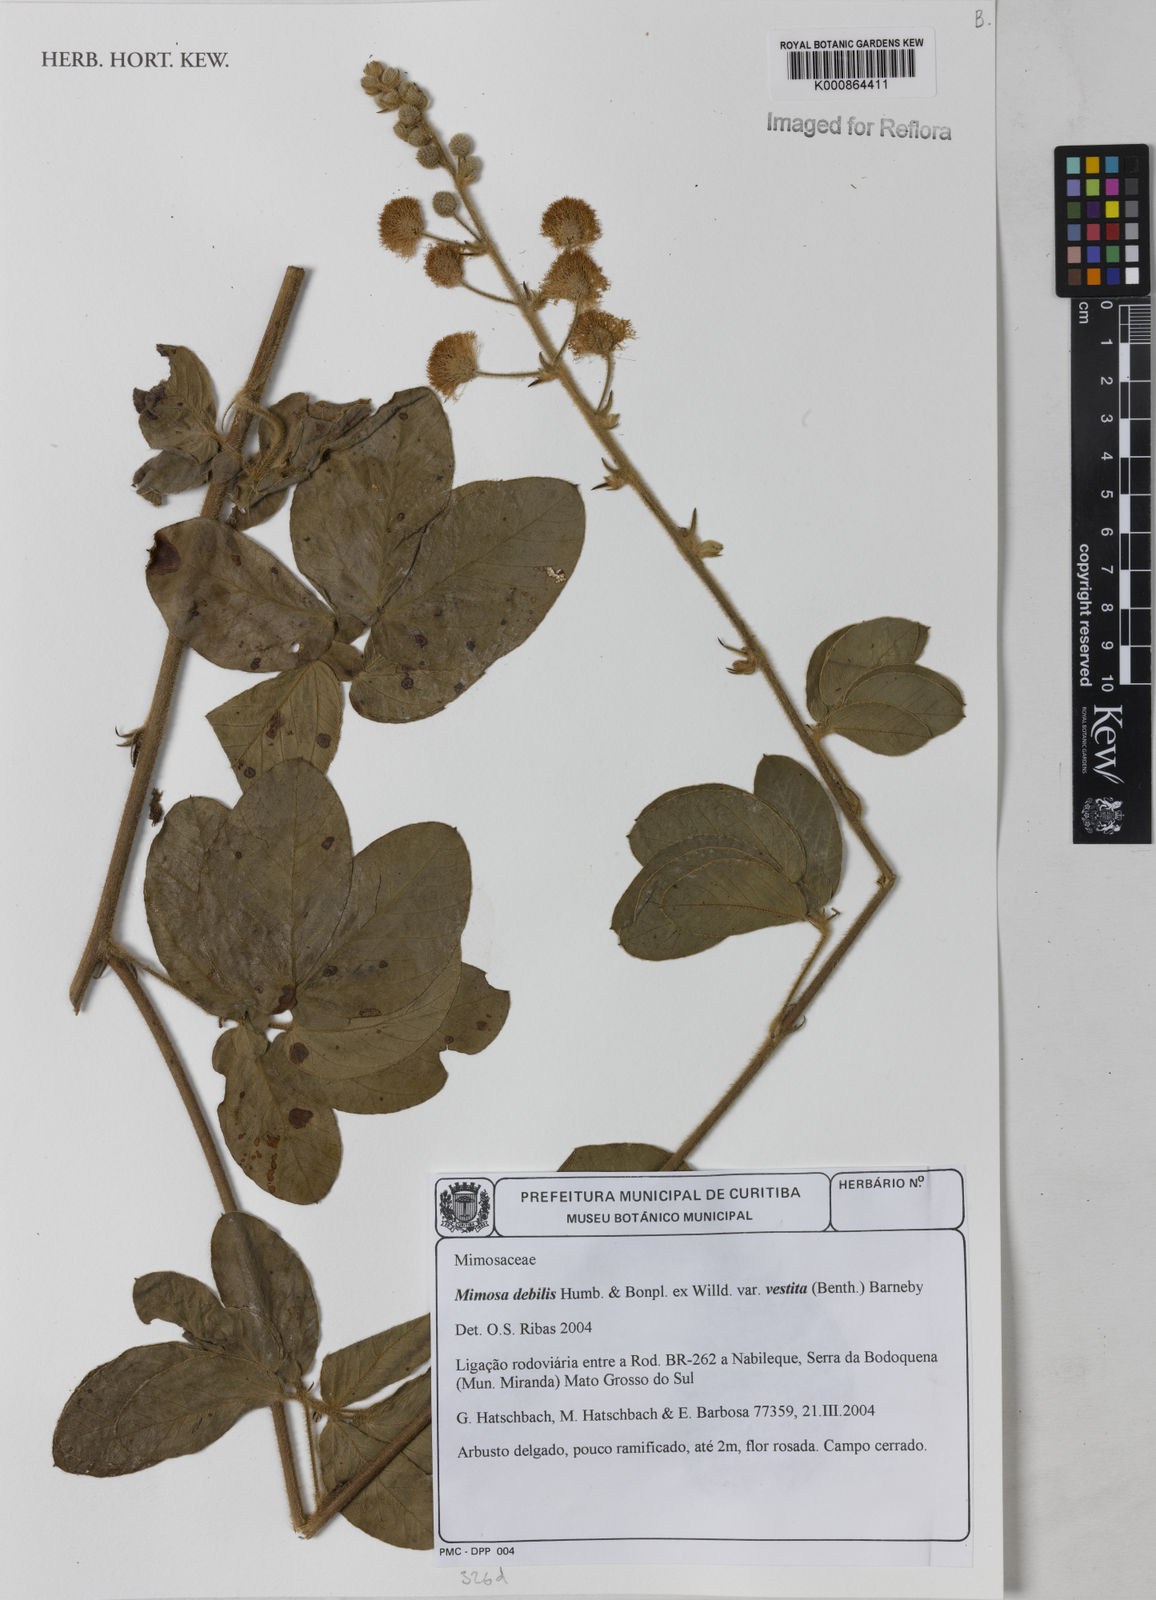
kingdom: Plantae
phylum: Tracheophyta
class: Magnoliopsida
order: Fabales
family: Fabaceae
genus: Mimosa
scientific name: Mimosa debilis
